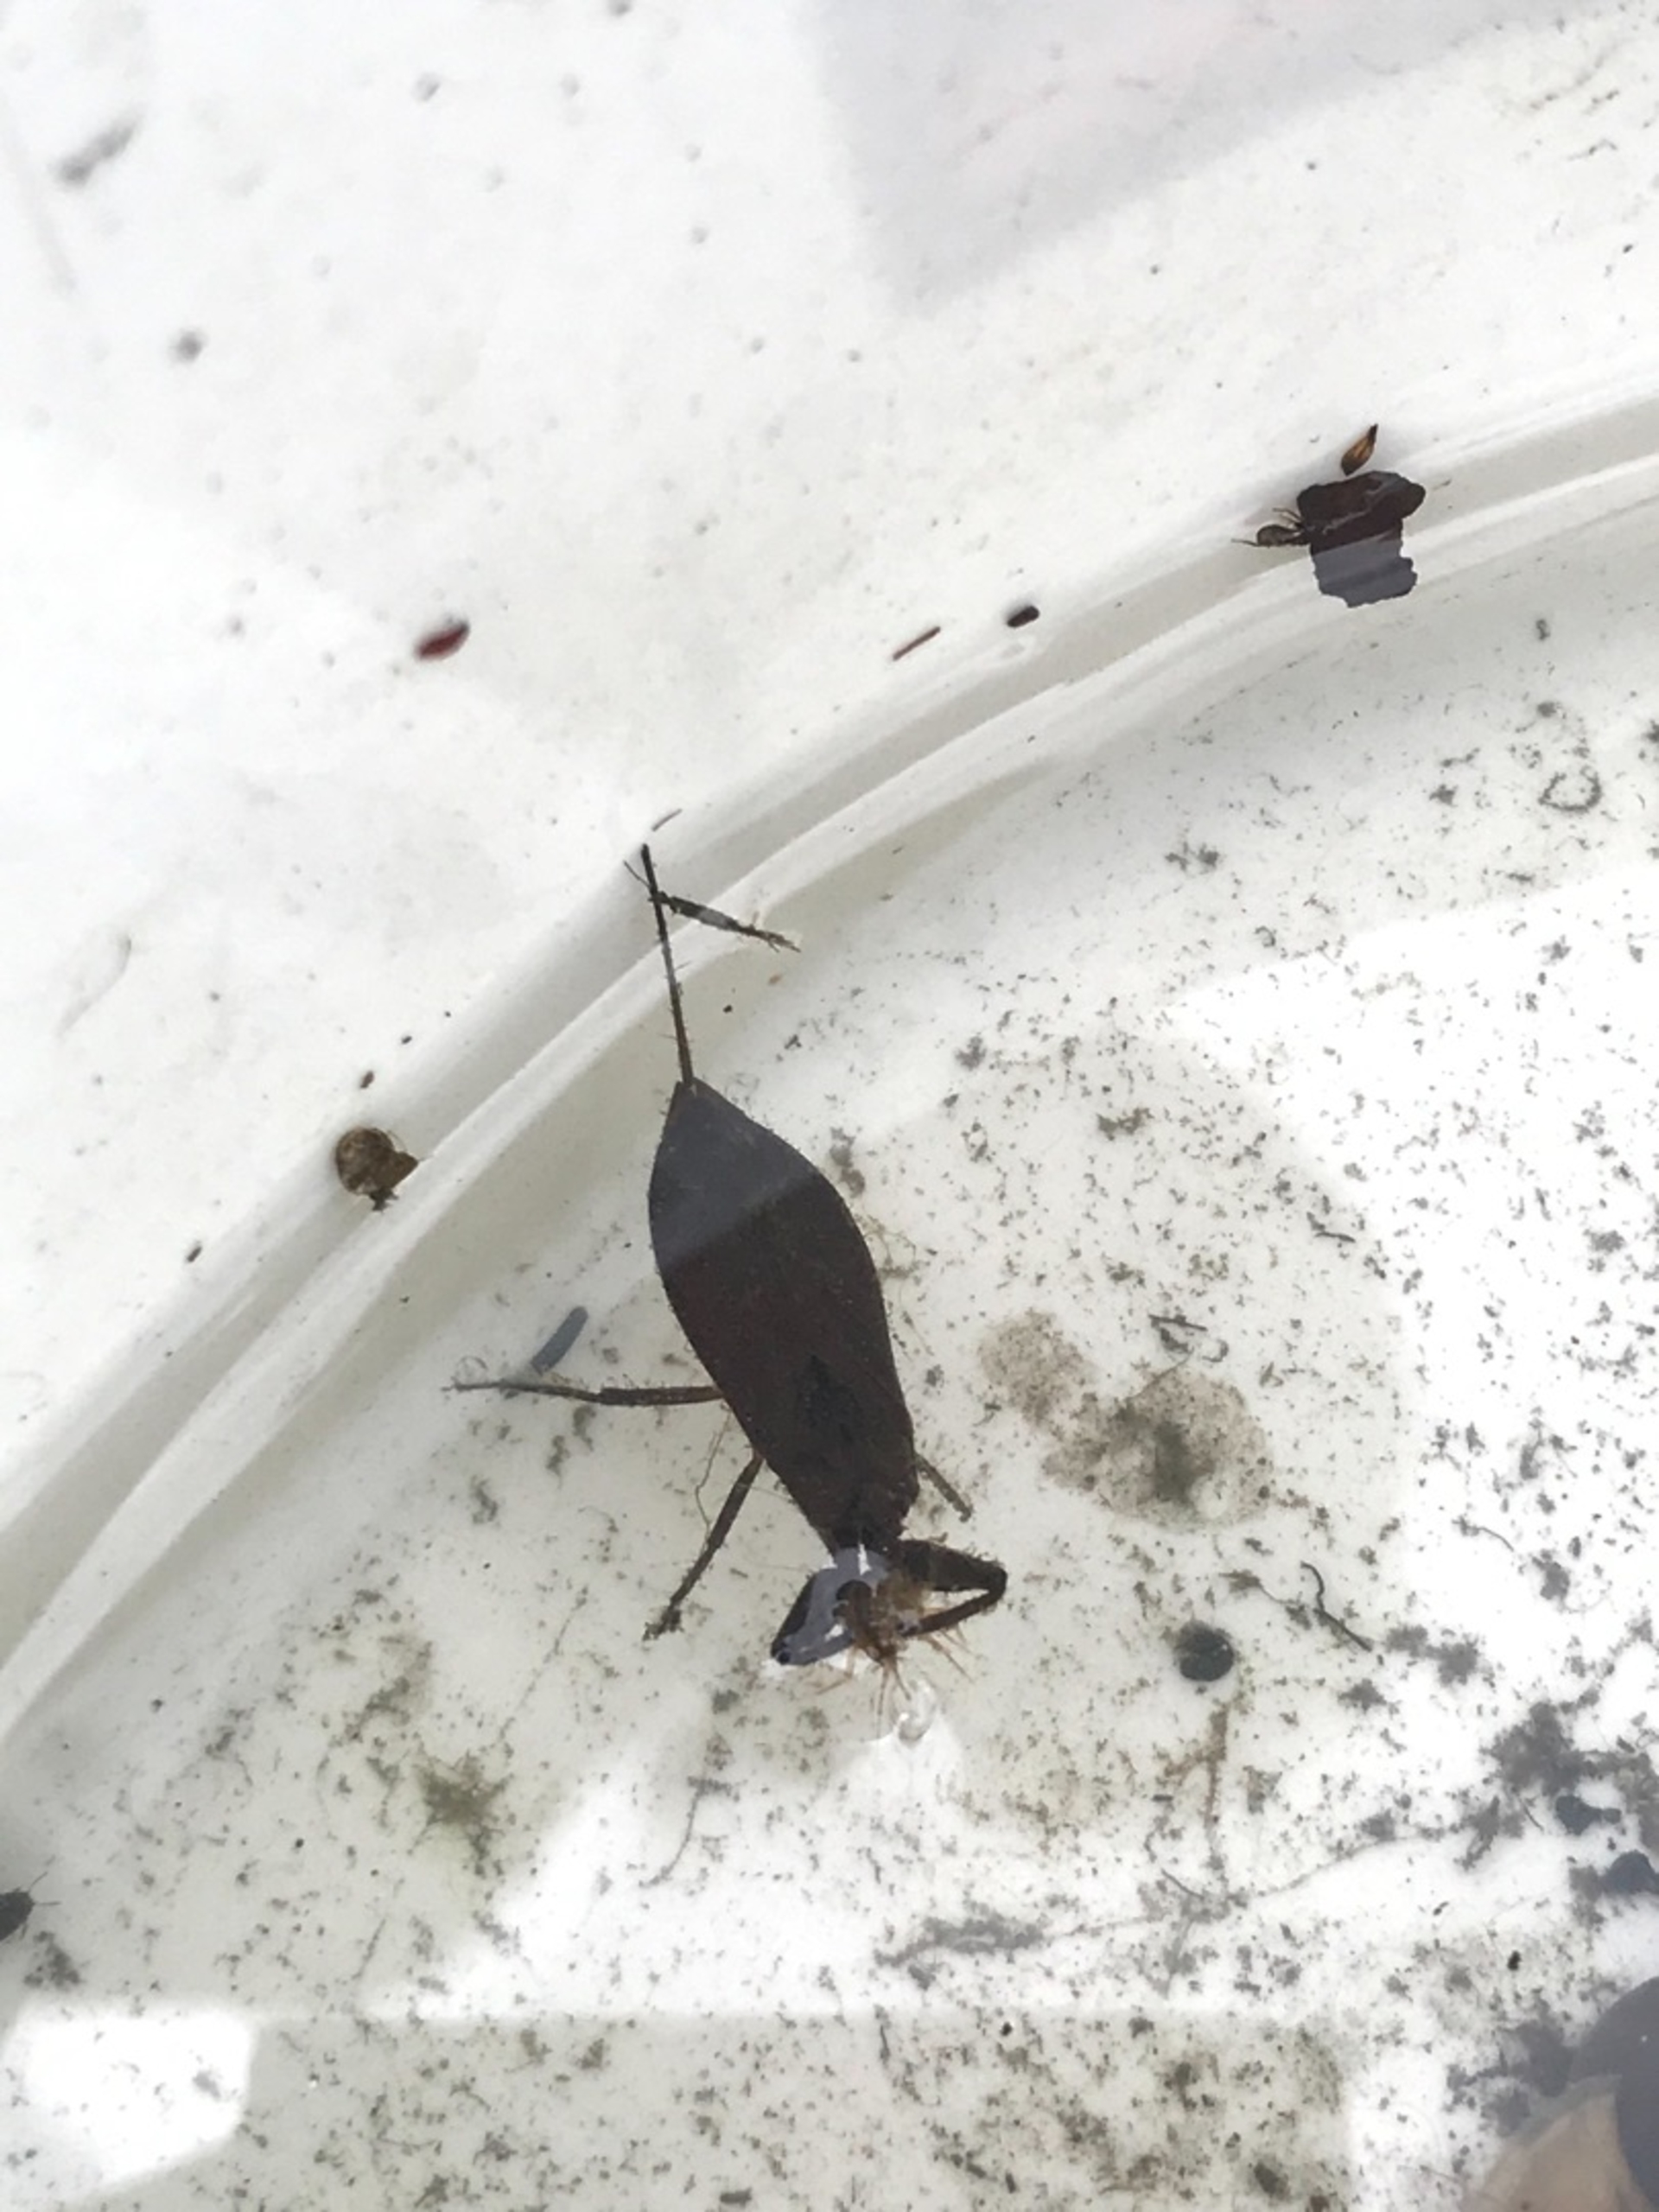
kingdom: Animalia
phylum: Arthropoda
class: Insecta
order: Hemiptera
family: Nepidae
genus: Nepa
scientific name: Nepa cinerea
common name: Skorpiontæge
